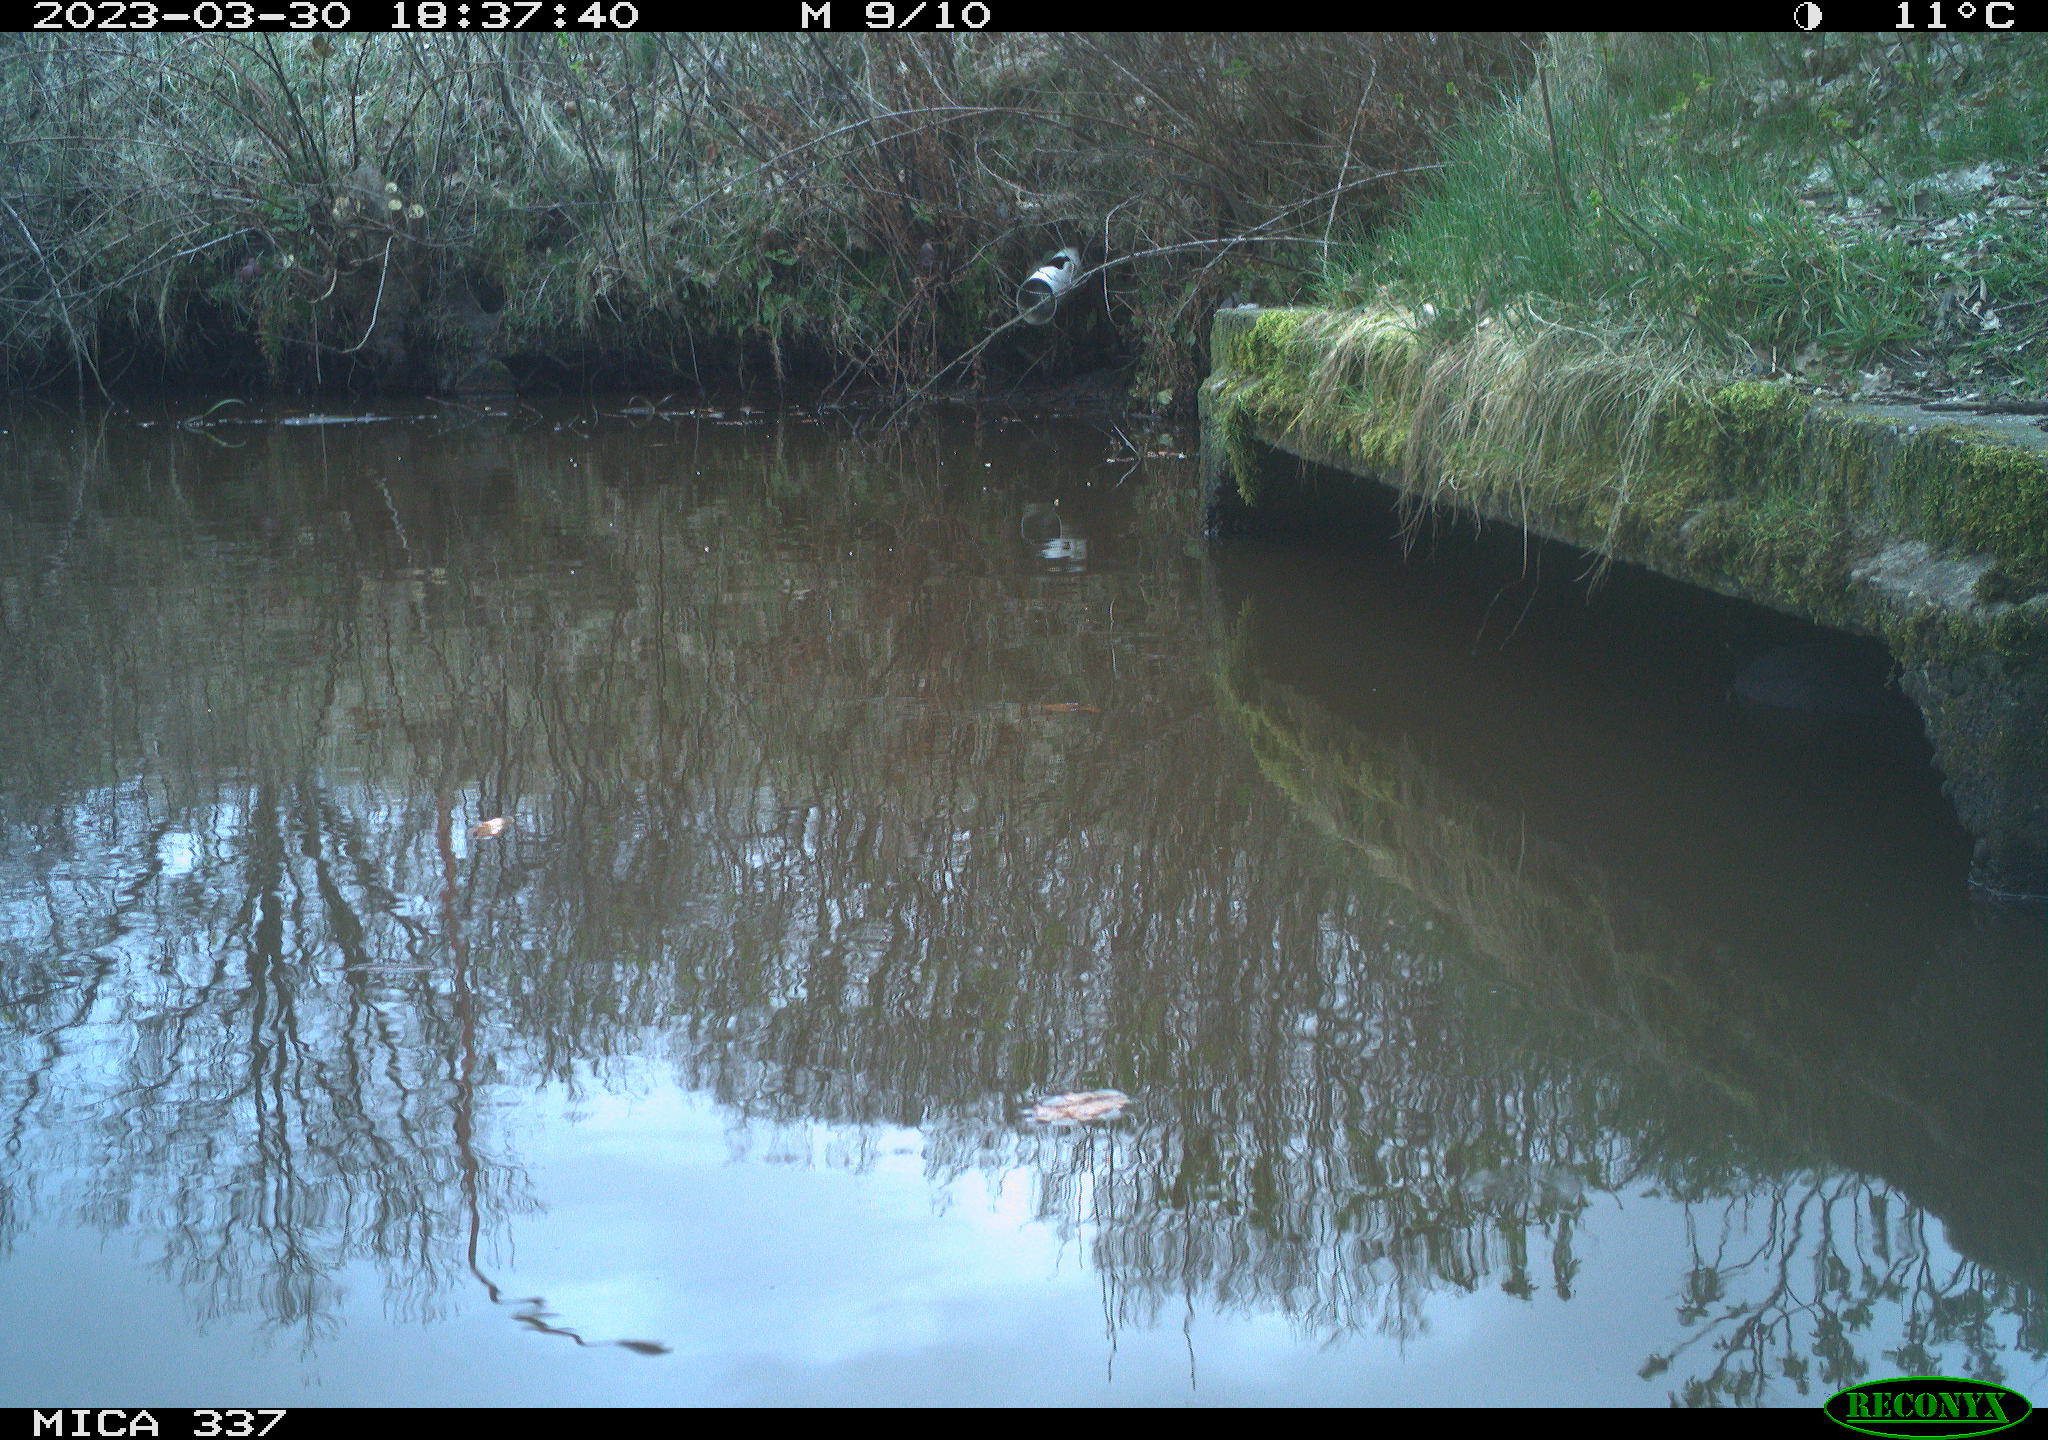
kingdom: Animalia
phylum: Chordata
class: Aves
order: Gruiformes
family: Rallidae
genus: Fulica
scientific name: Fulica atra
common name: Eurasian coot
